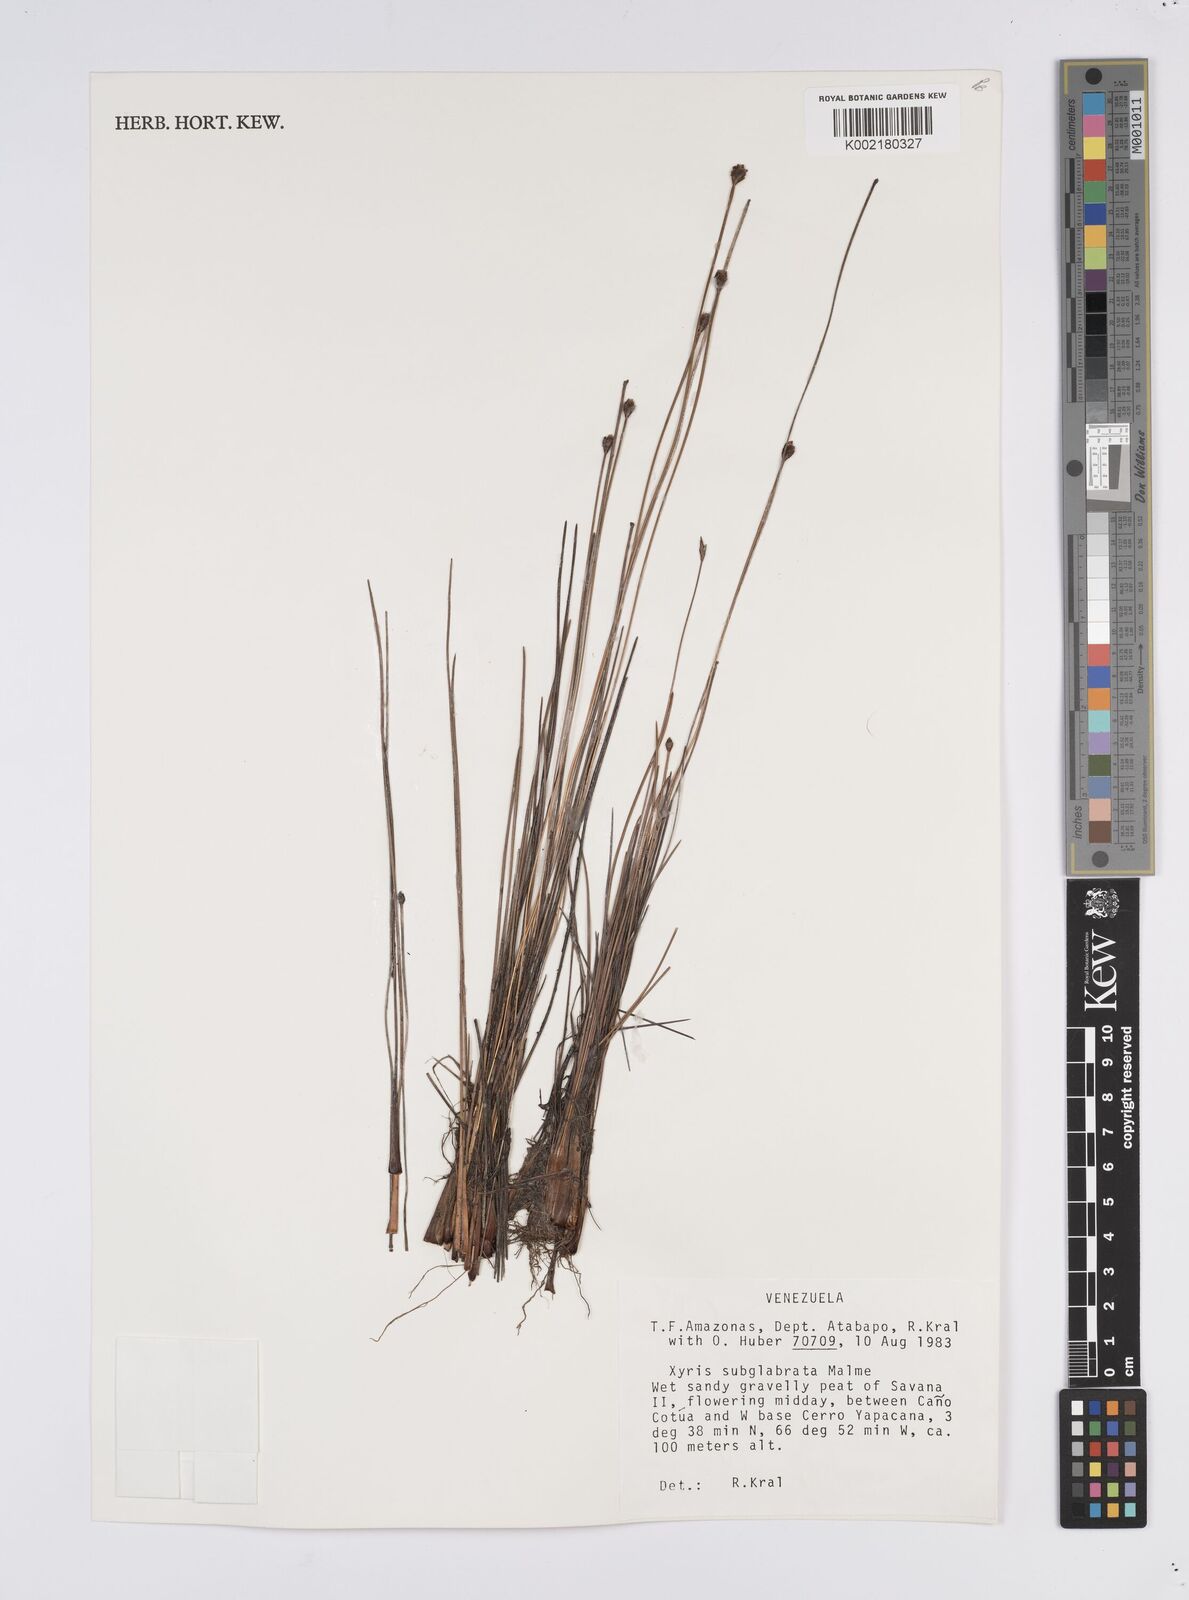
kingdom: Plantae
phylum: Tracheophyta
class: Liliopsida
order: Poales
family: Xyridaceae
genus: Xyris
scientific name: Xyris subglabrata
